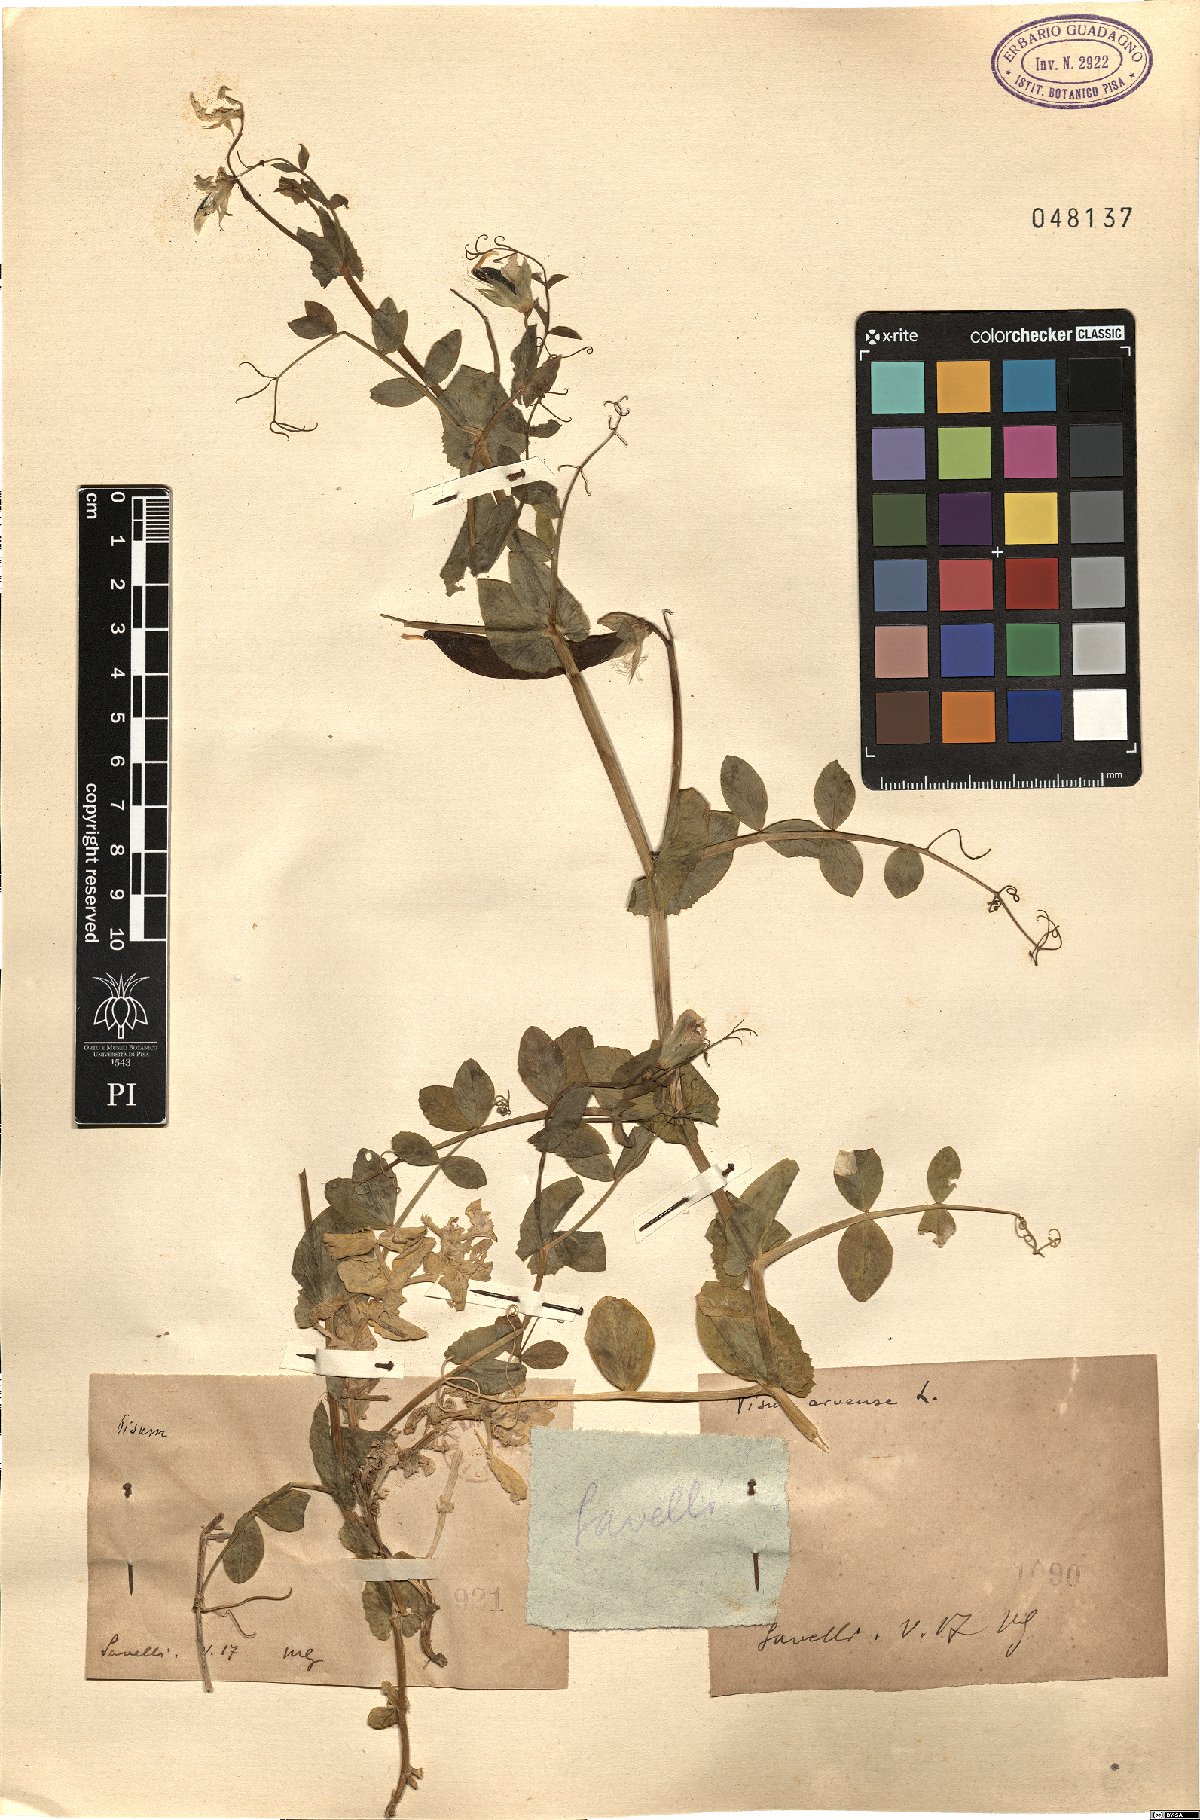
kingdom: Plantae
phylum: Tracheophyta
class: Magnoliopsida
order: Fabales
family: Fabaceae
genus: Lathyrus
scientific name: Lathyrus oleraceus
